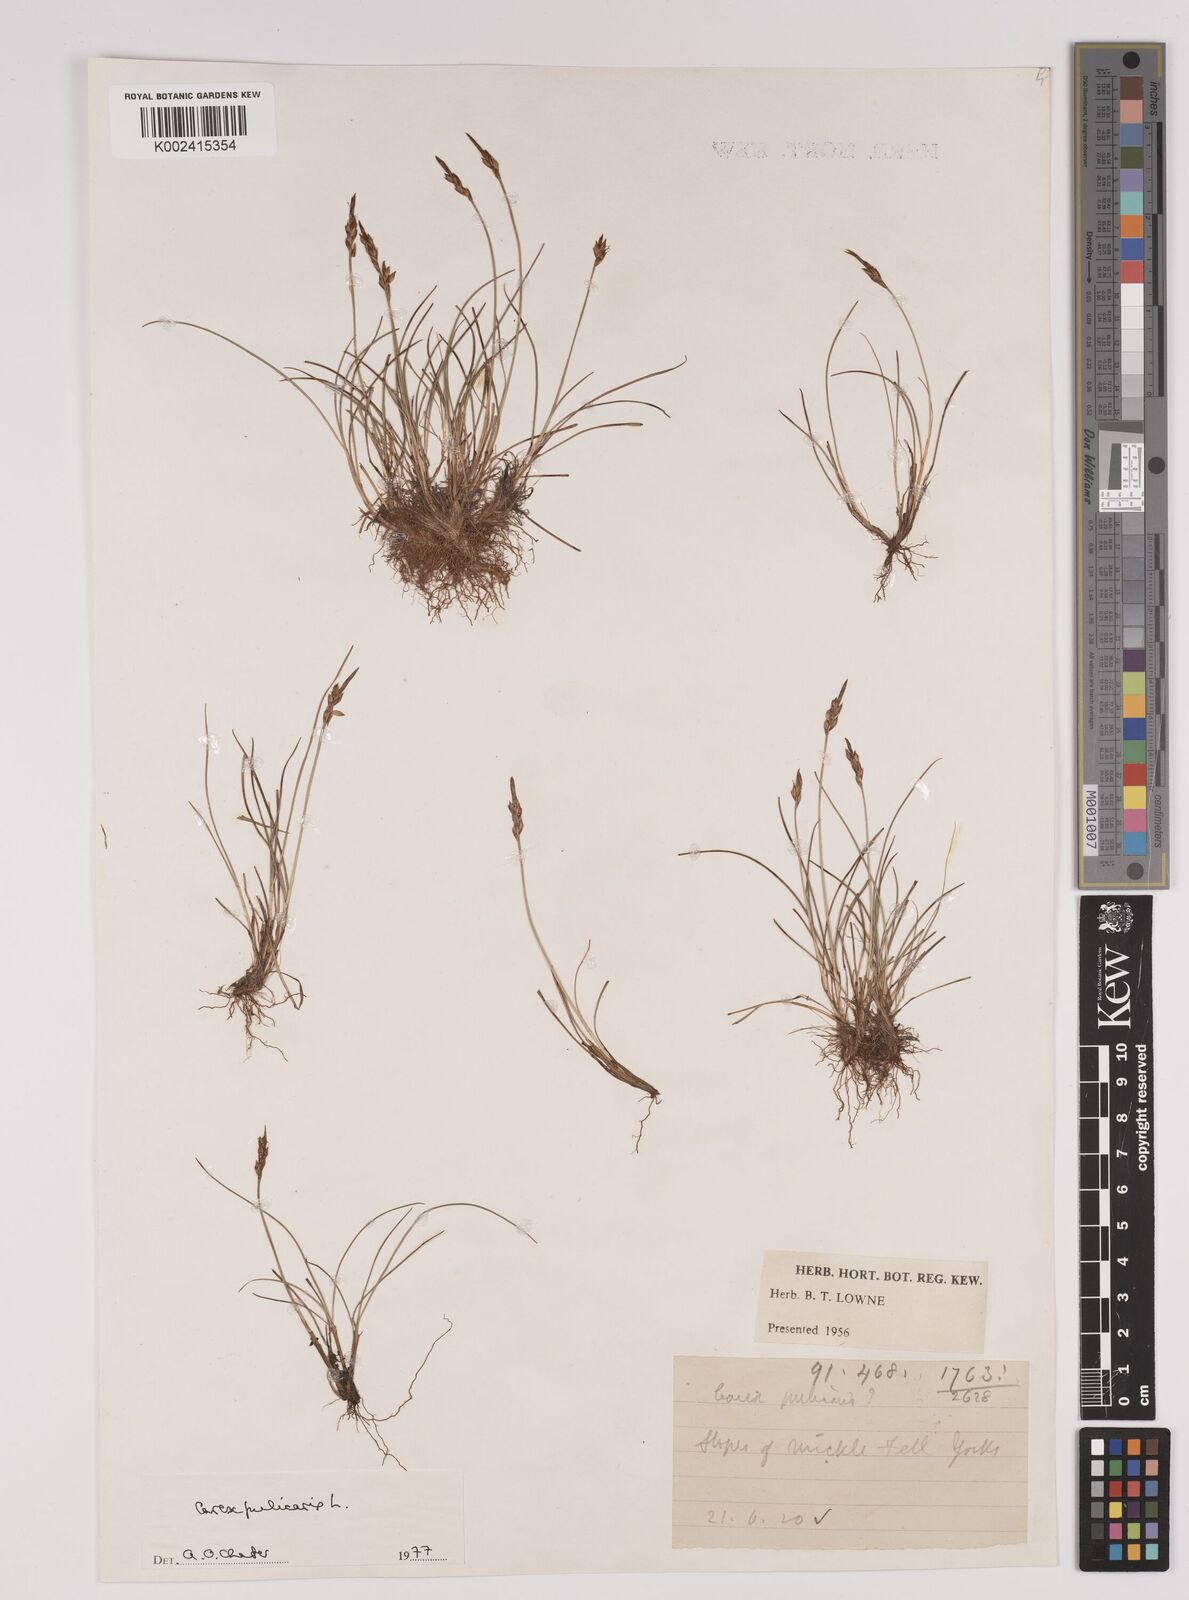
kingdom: Plantae
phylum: Tracheophyta
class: Liliopsida
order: Poales
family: Cyperaceae
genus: Carex
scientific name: Carex pulicaris
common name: Flea sedge
